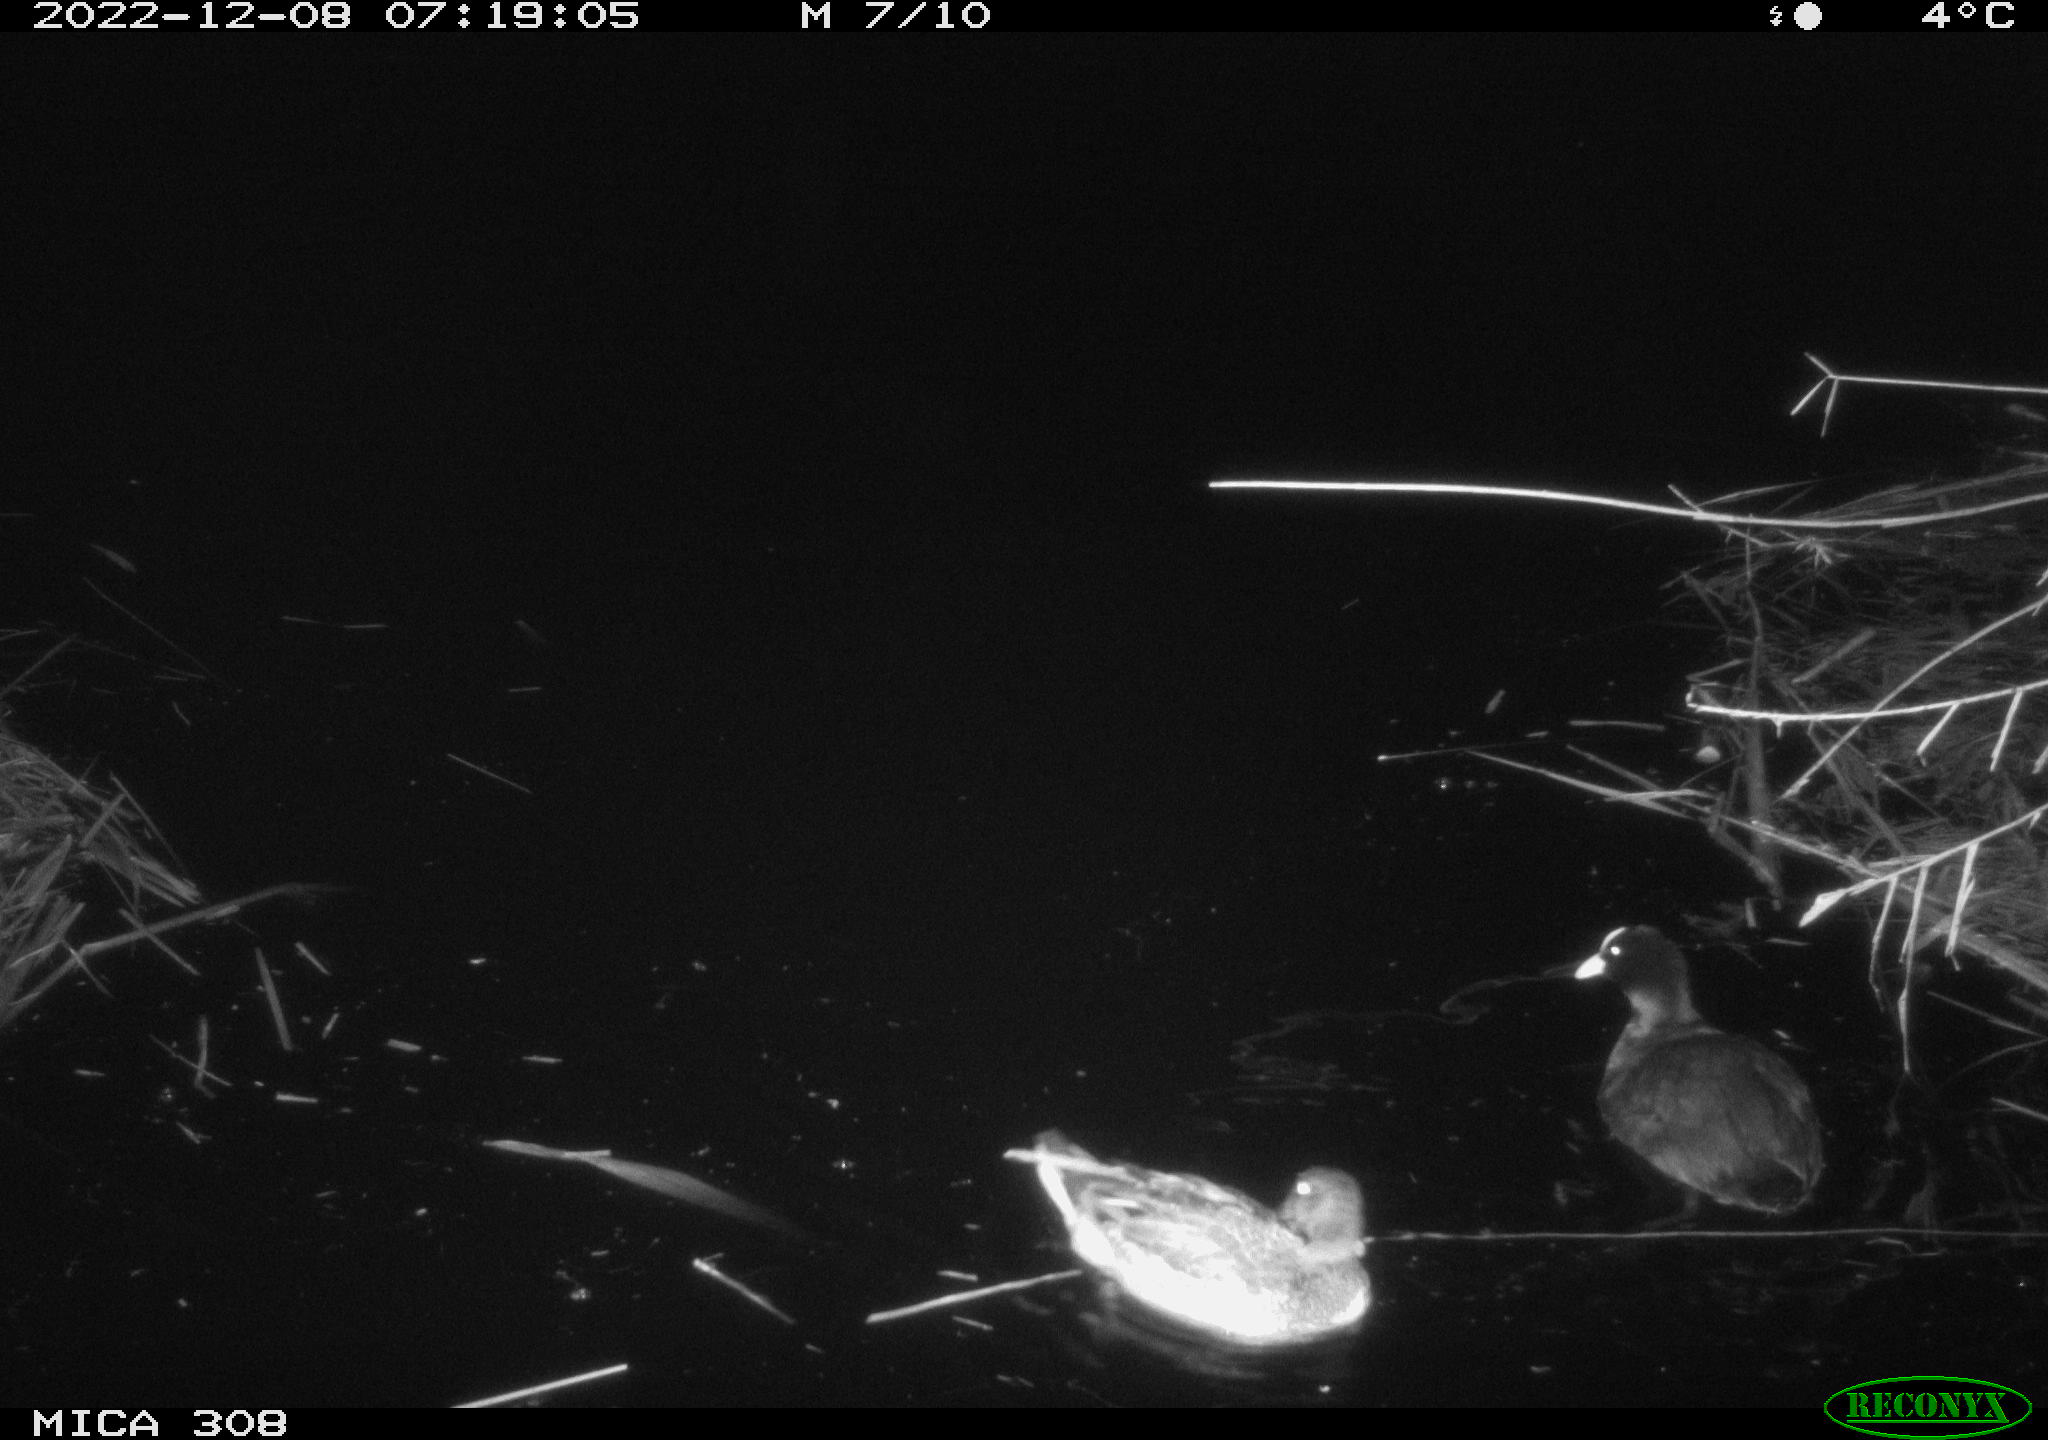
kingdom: Animalia
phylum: Chordata
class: Aves
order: Anseriformes
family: Anatidae
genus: Anas
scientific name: Anas
